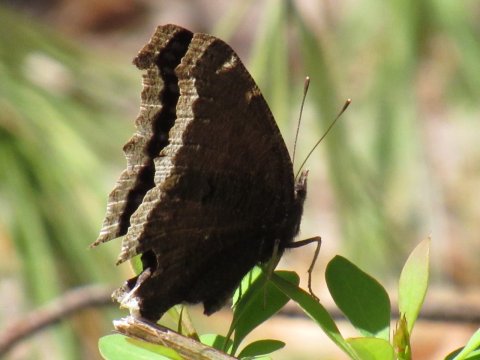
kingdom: Animalia
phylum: Arthropoda
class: Insecta
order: Lepidoptera
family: Nymphalidae
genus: Nymphalis
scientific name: Nymphalis antiopa
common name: Mourning Cloak
